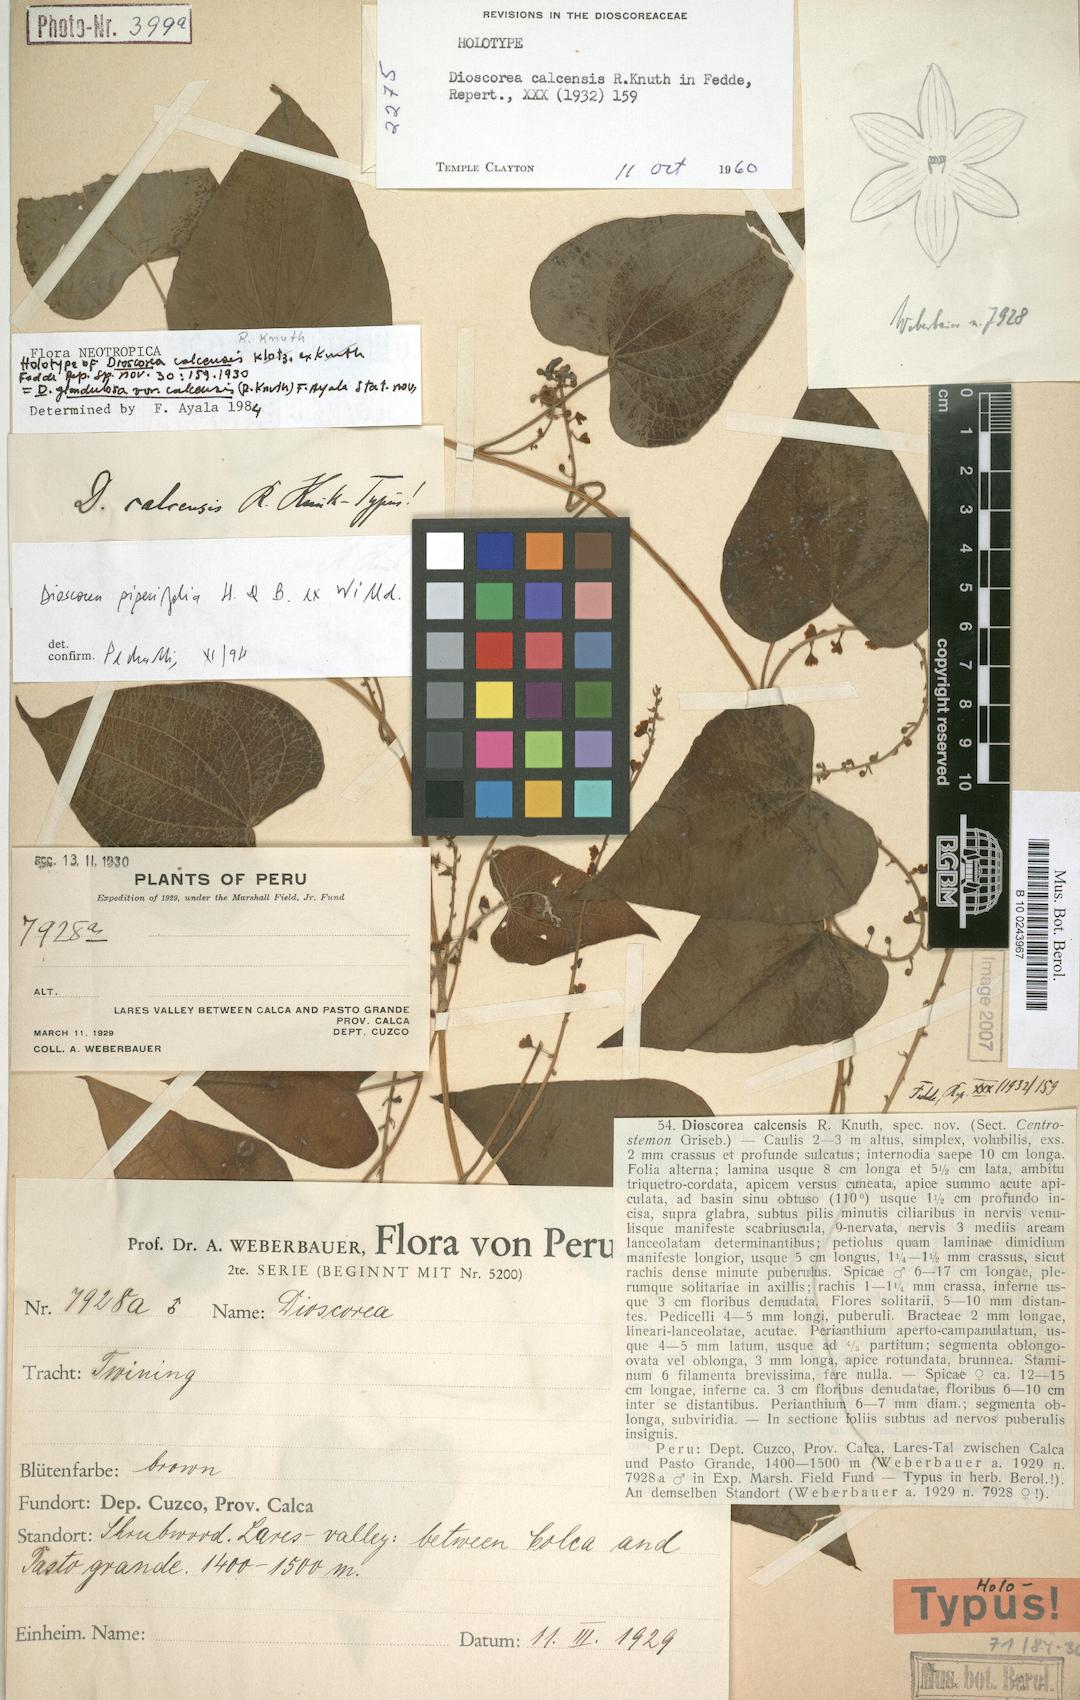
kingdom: Plantae
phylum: Tracheophyta
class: Liliopsida
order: Dioscoreales
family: Dioscoreaceae
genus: Dioscorea
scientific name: Dioscorea glandulosa
